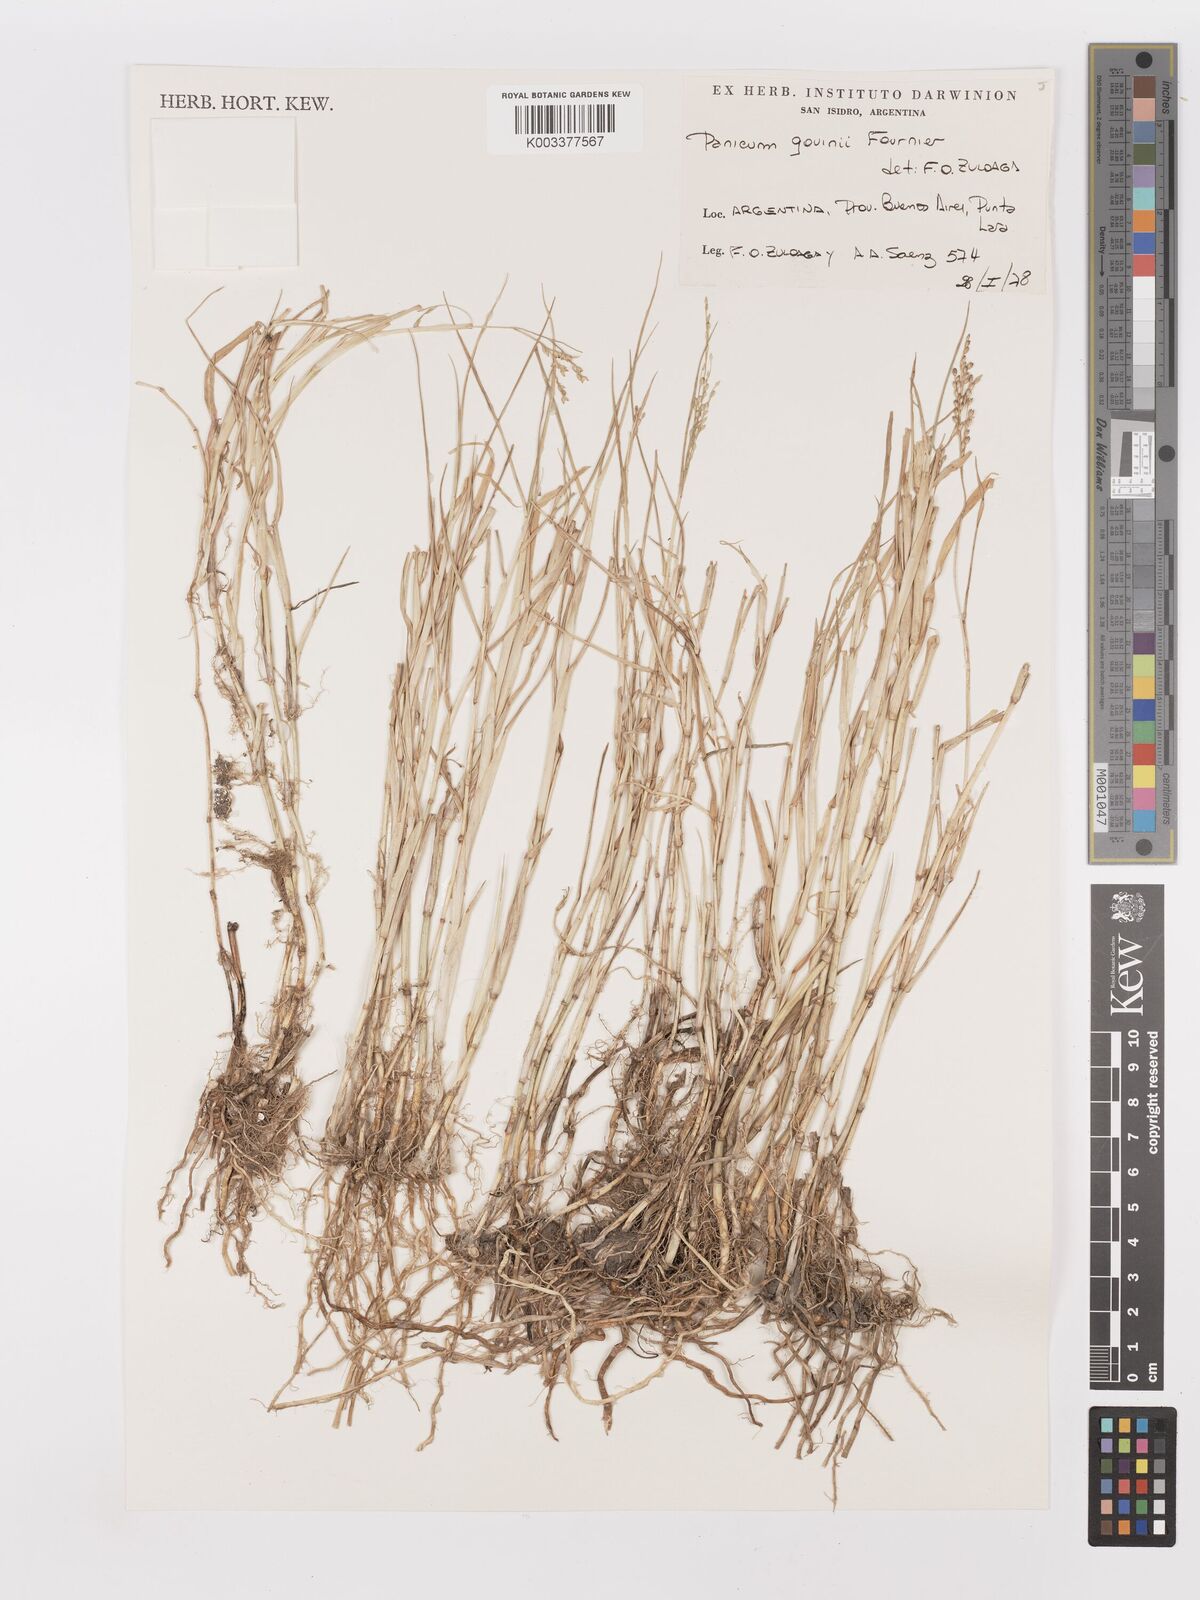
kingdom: Plantae
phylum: Tracheophyta
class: Liliopsida
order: Poales
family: Poaceae
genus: Urochloa
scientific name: Urochloa rudis
